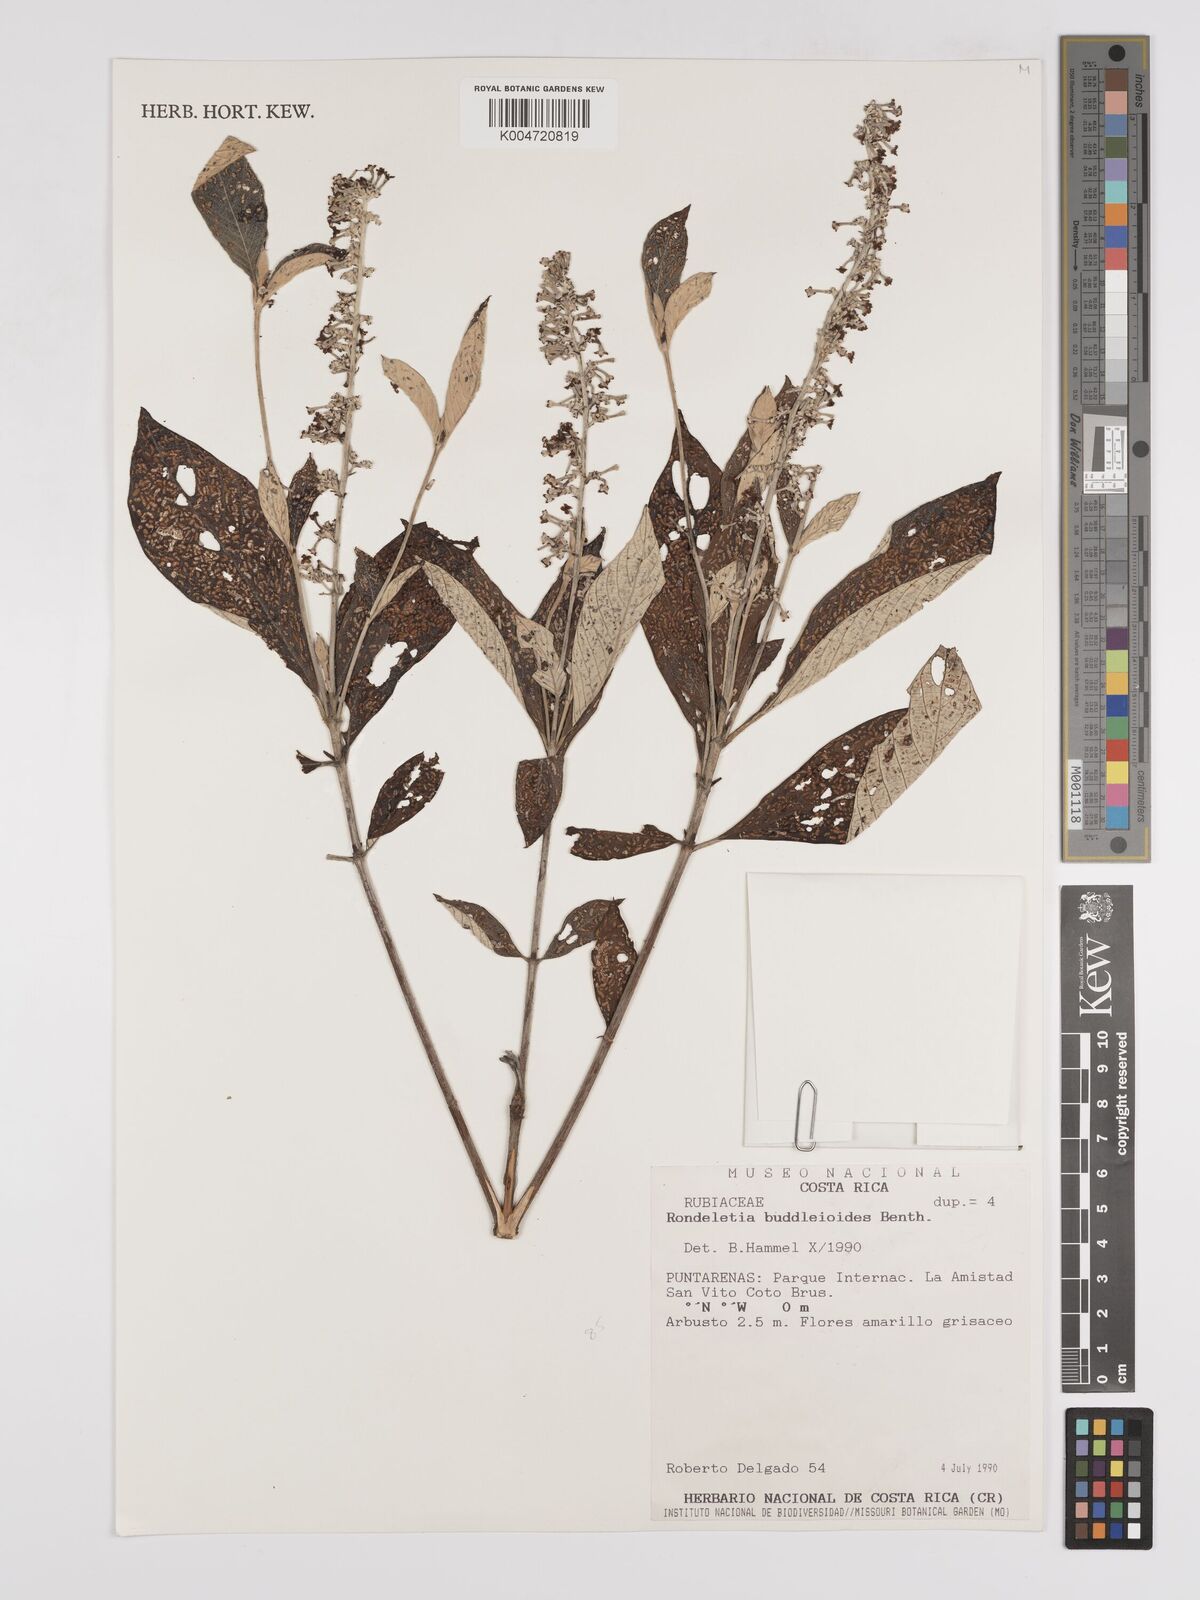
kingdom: Plantae
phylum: Tracheophyta
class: Magnoliopsida
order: Gentianales
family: Rubiaceae
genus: Arachnothryx
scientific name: Arachnothryx buddleioides
